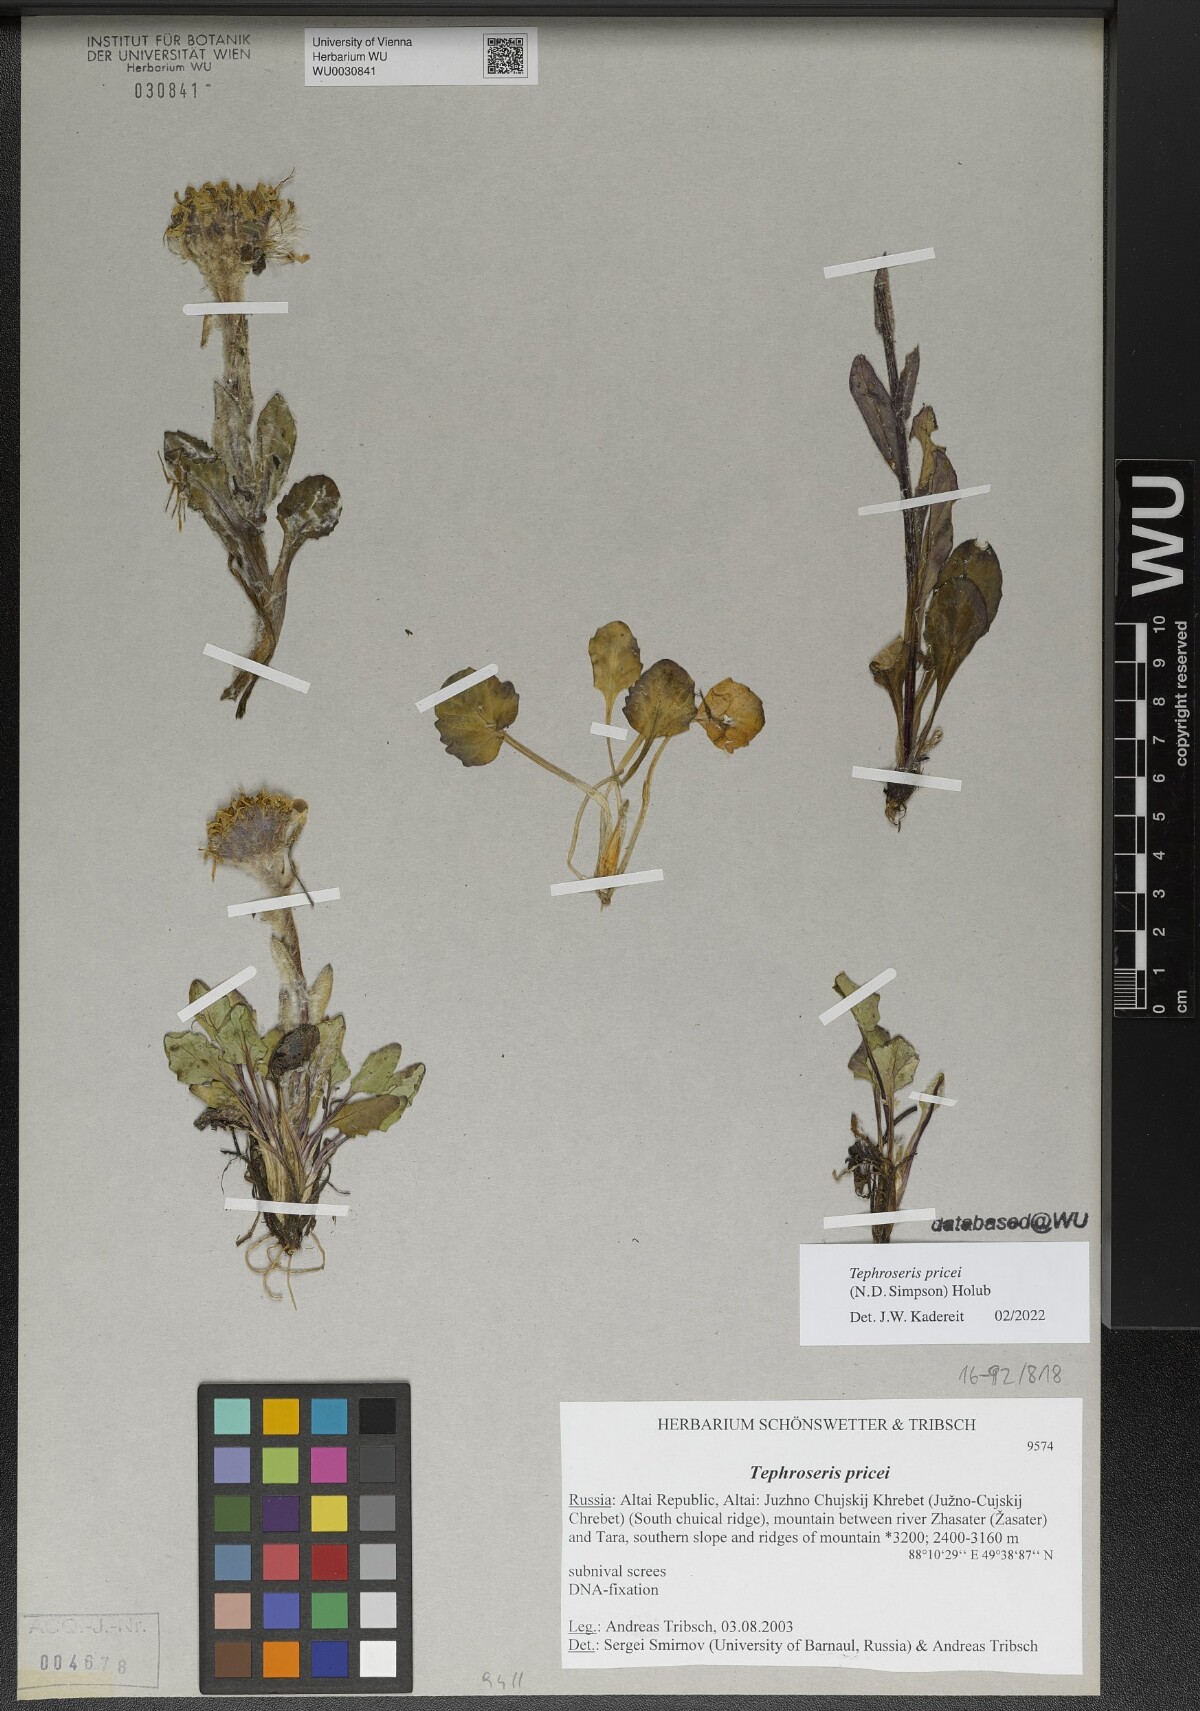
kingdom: Plantae
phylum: Tracheophyta
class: Magnoliopsida
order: Asterales
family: Asteraceae
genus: Tephroseris
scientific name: Tephroseris pricei
